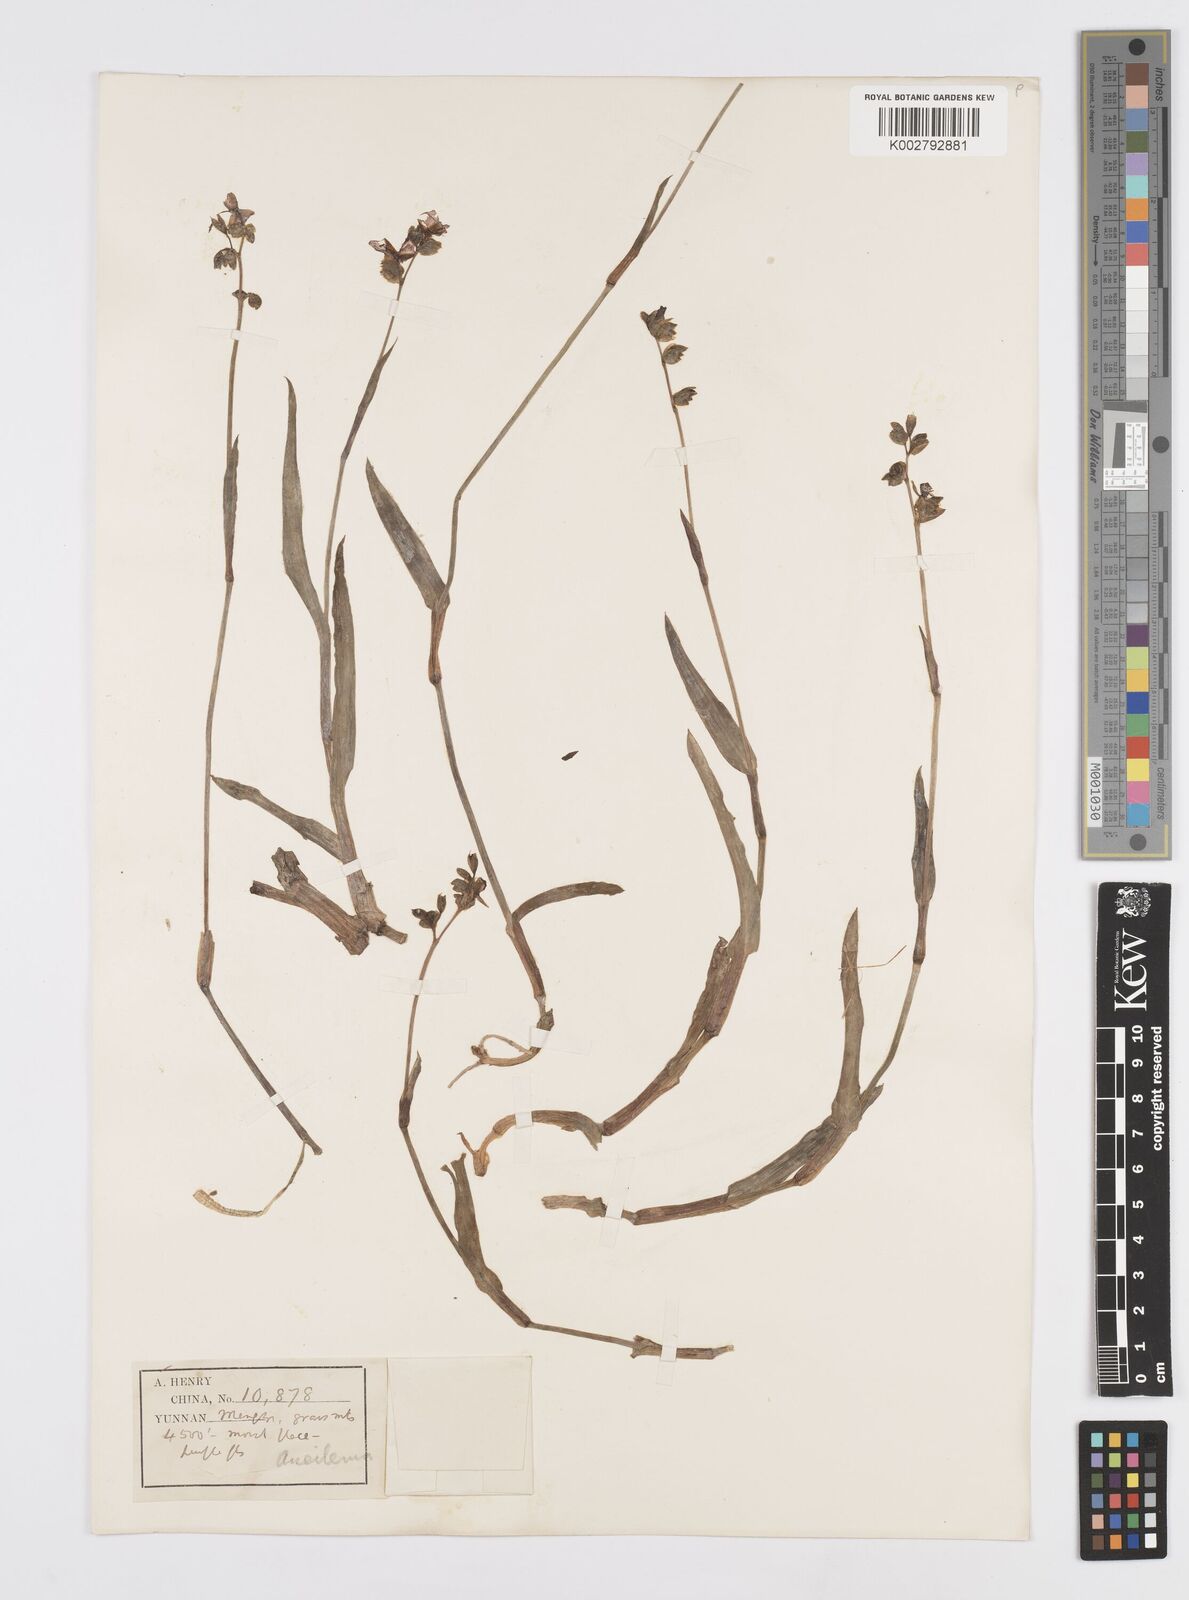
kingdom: Plantae
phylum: Tracheophyta
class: Liliopsida
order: Commelinales
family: Commelinaceae
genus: Murdannia
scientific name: Murdannia
